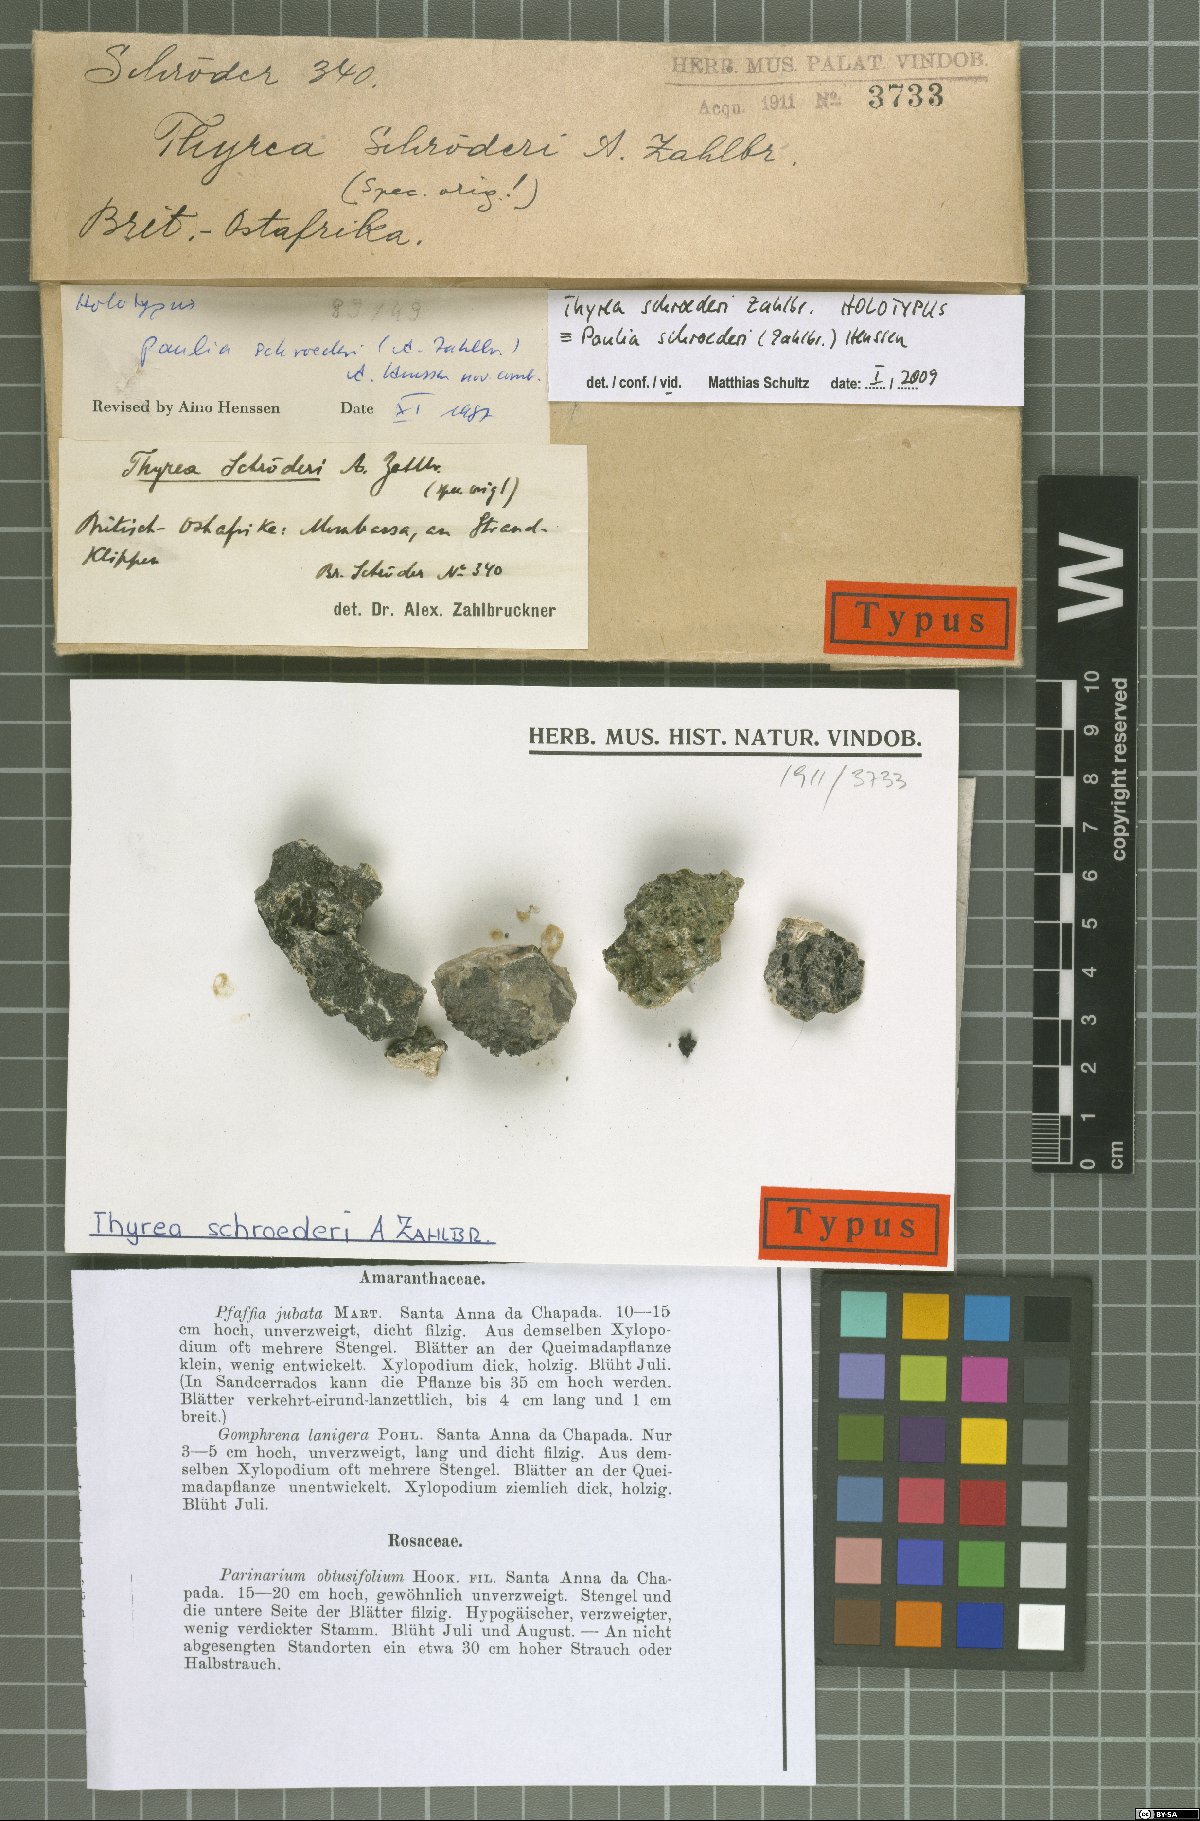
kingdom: Fungi
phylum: Ascomycota
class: Lichinomycetes
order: Lichinales
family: Lichinaceae
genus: Paulia
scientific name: Paulia schroederi
